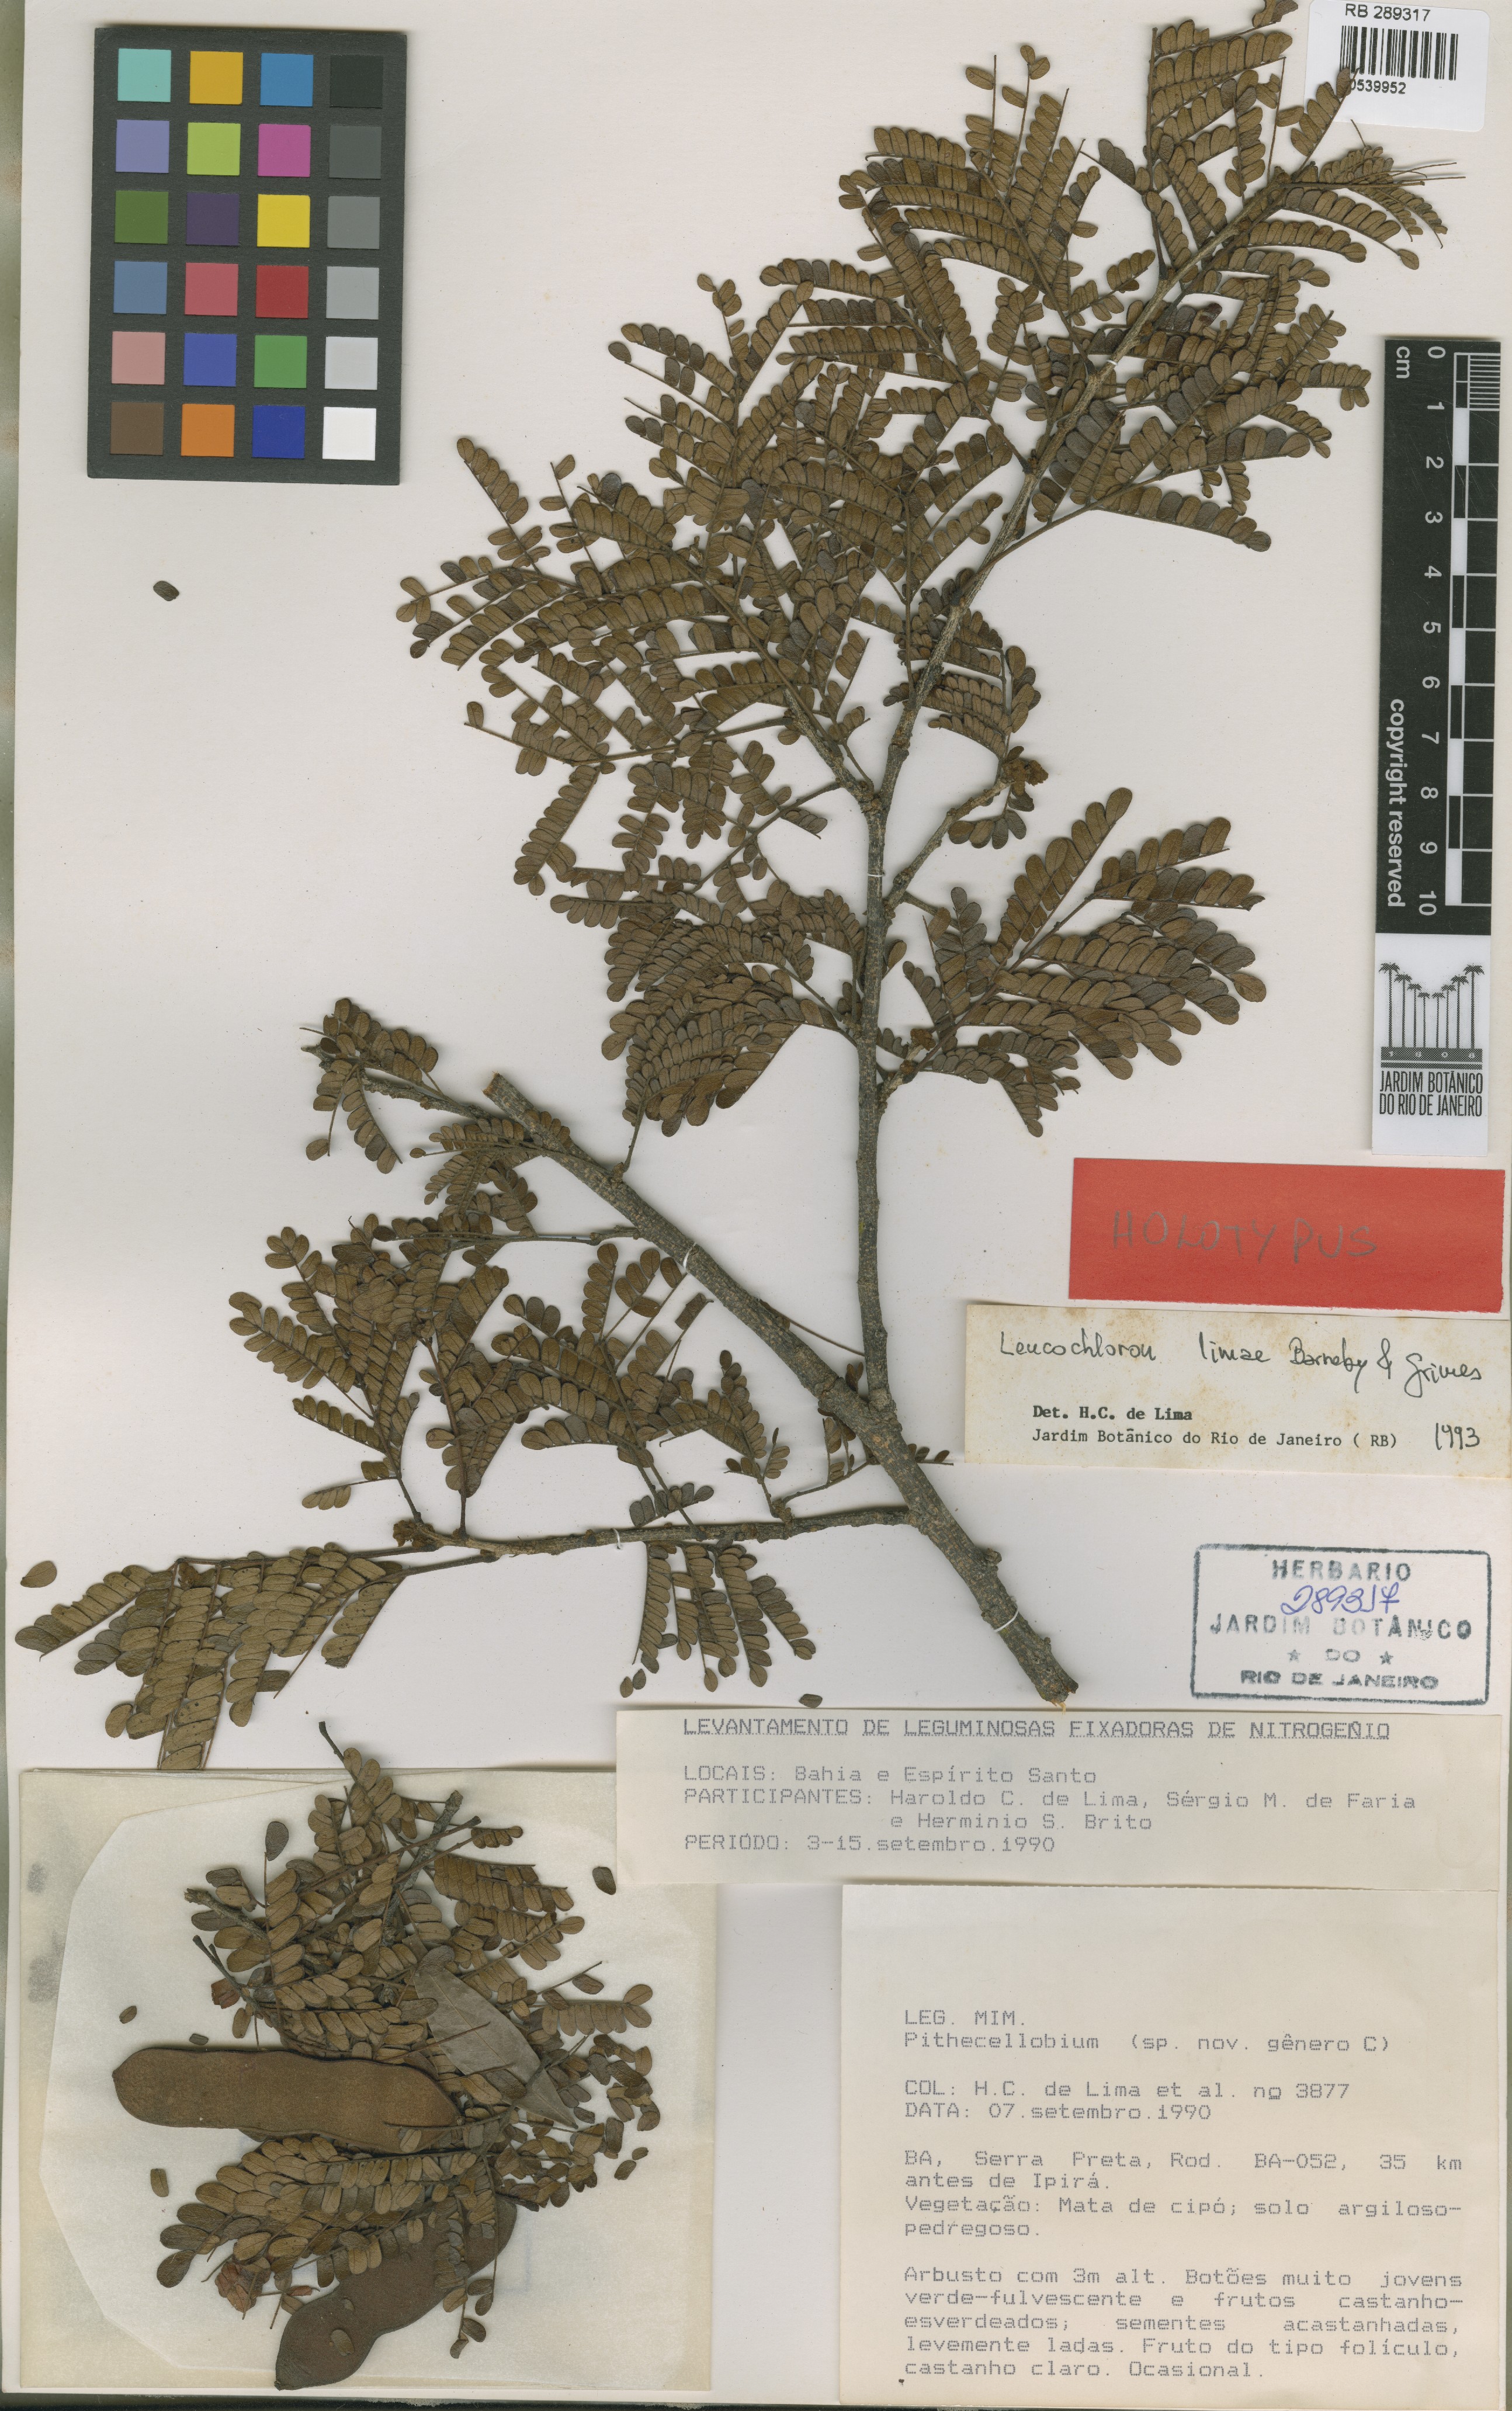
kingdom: Plantae
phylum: Tracheophyta
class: Magnoliopsida
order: Fabales
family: Fabaceae
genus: Leucochloron
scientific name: Leucochloron limae
